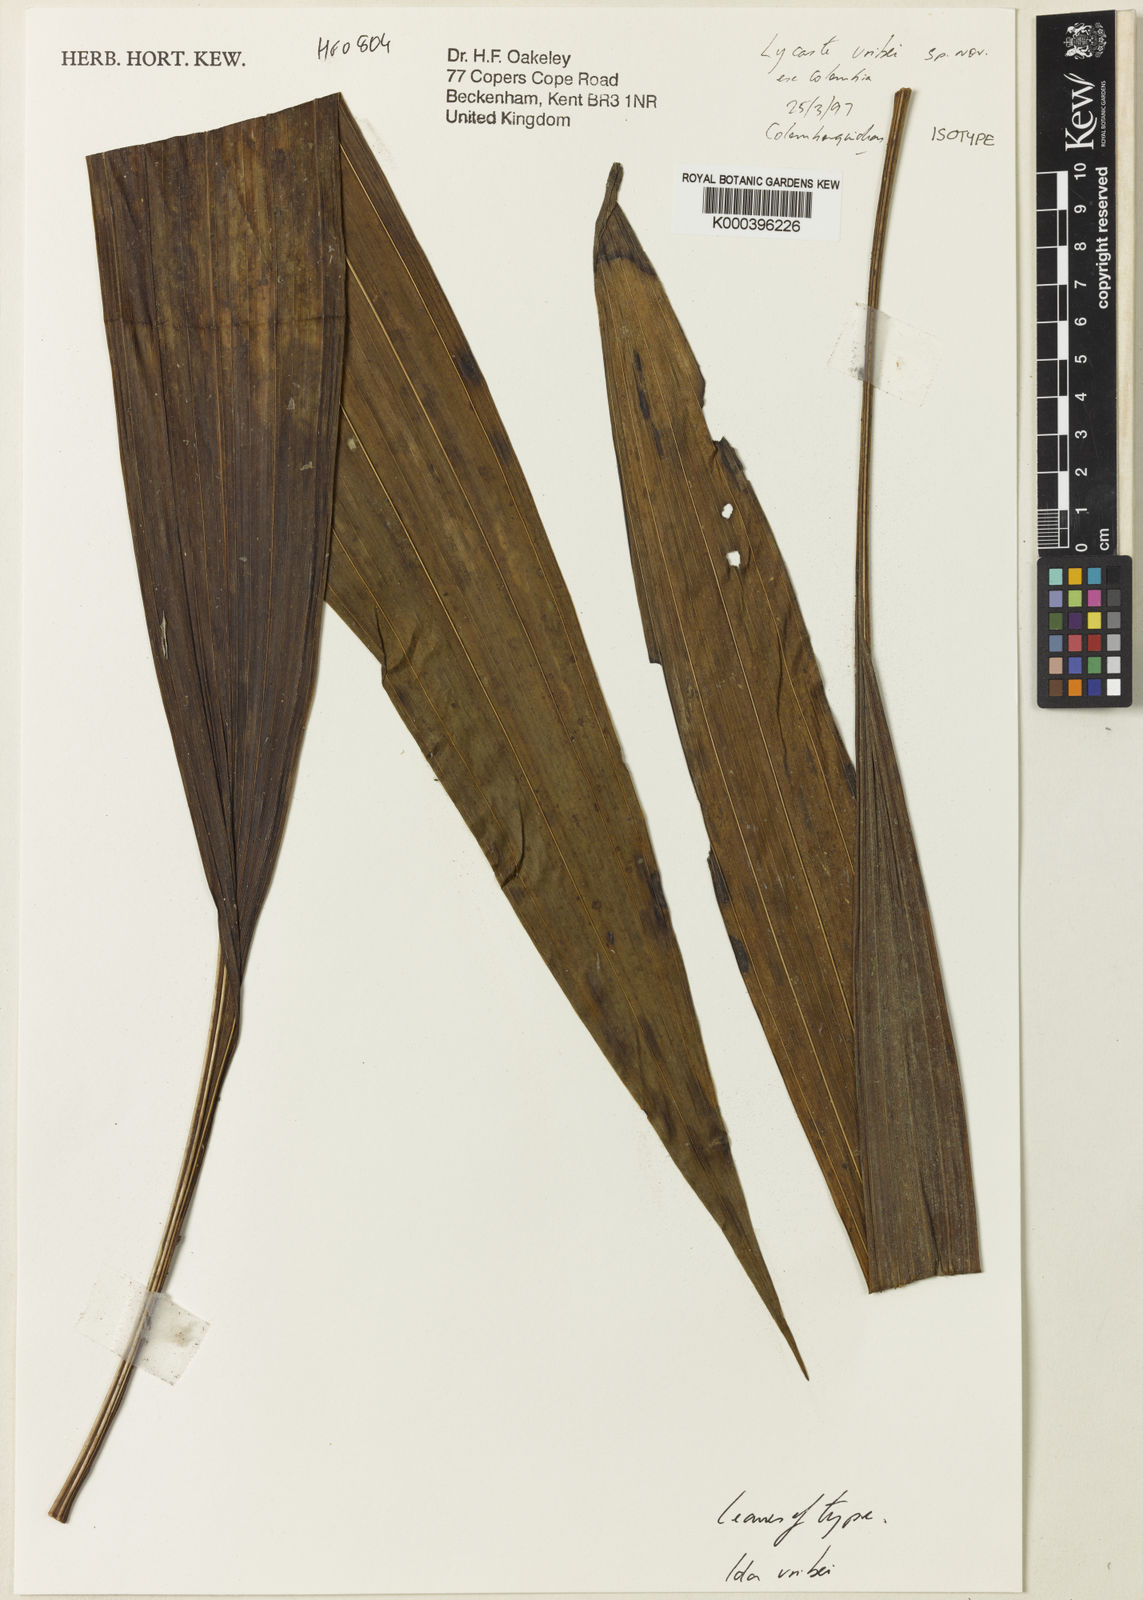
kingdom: Plantae
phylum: Tracheophyta
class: Liliopsida
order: Asparagales
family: Orchidaceae
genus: Ida
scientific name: Ida uribei
